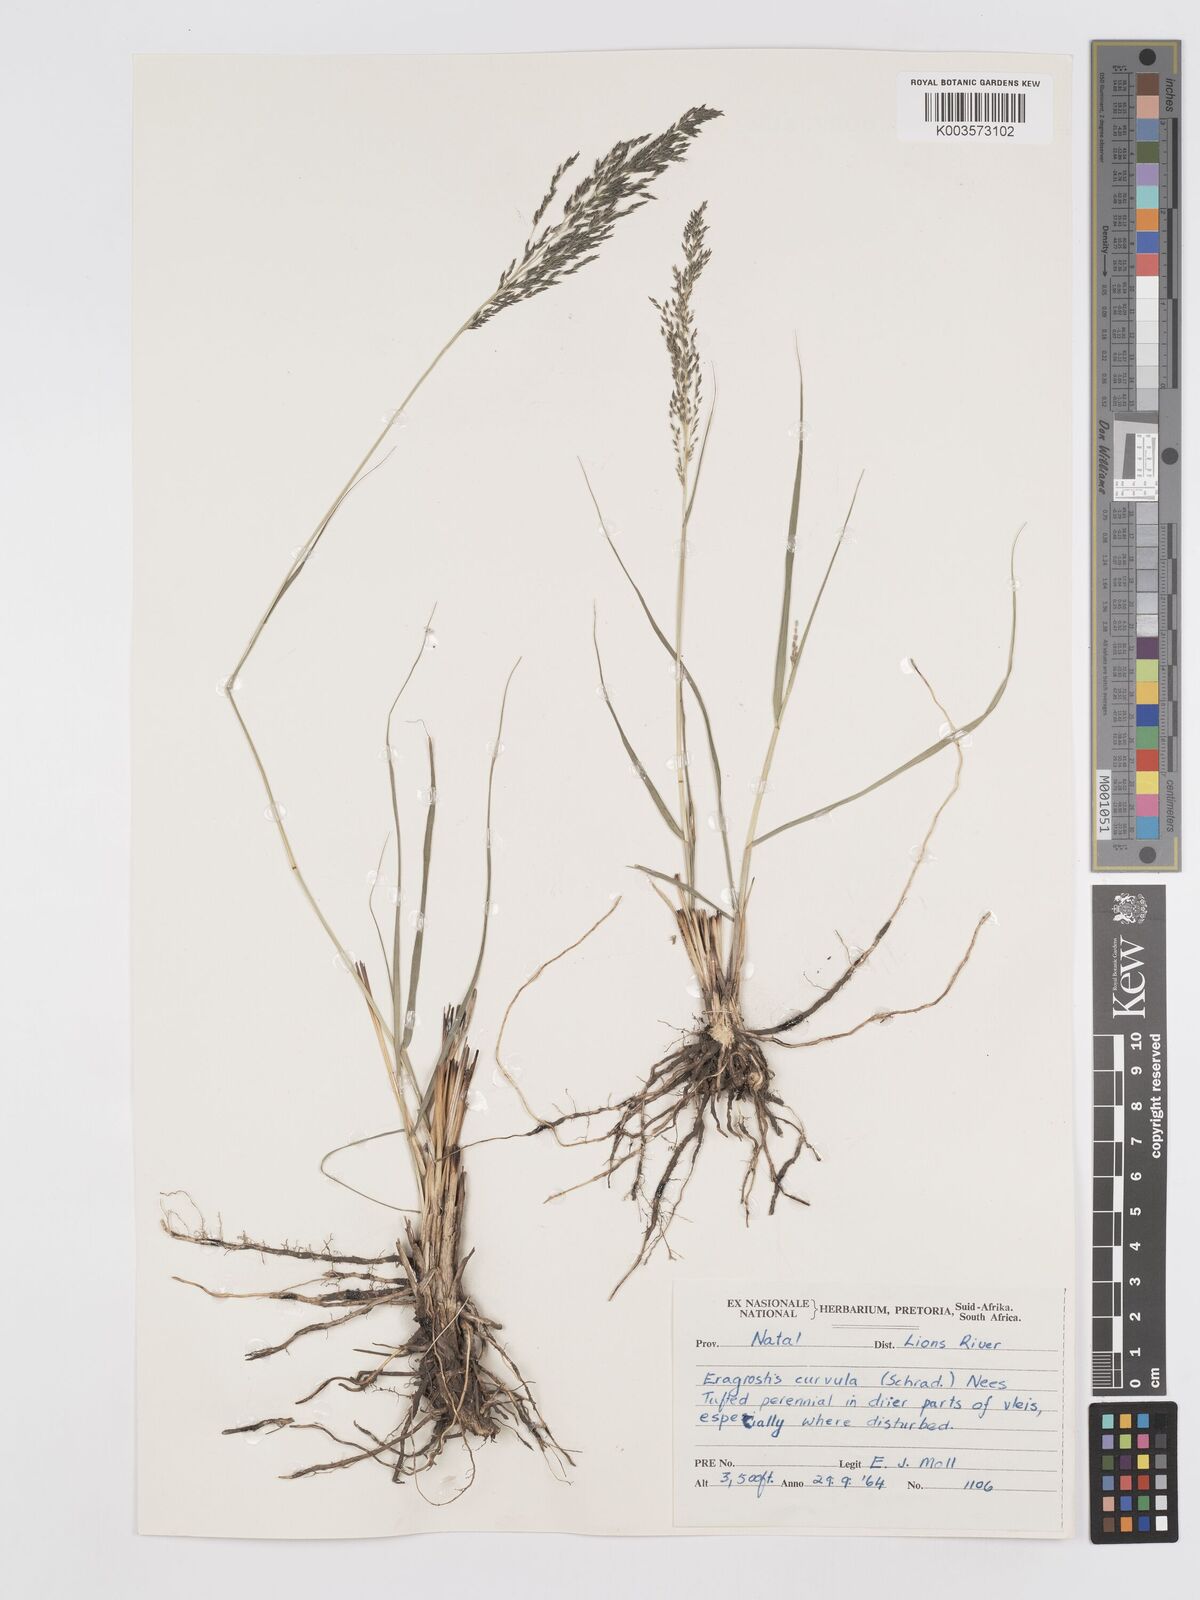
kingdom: Plantae
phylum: Tracheophyta
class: Liliopsida
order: Poales
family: Poaceae
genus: Eragrostis
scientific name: Eragrostis curvula
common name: African love-grass
